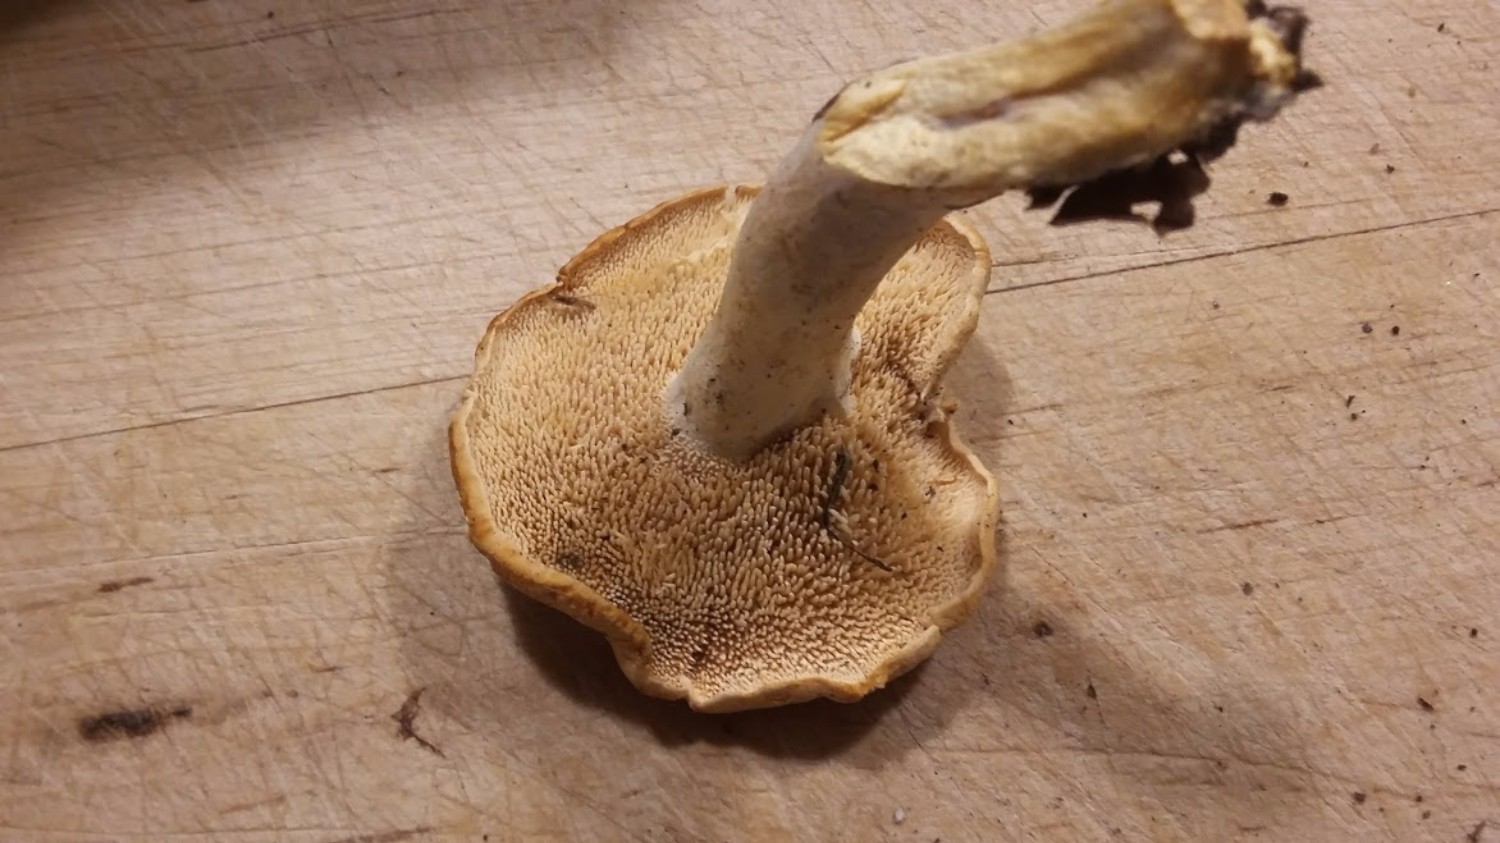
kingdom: Fungi
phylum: Basidiomycota
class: Agaricomycetes
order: Cantharellales
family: Hydnaceae
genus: Hydnum
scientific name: Hydnum
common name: pigsvamp
